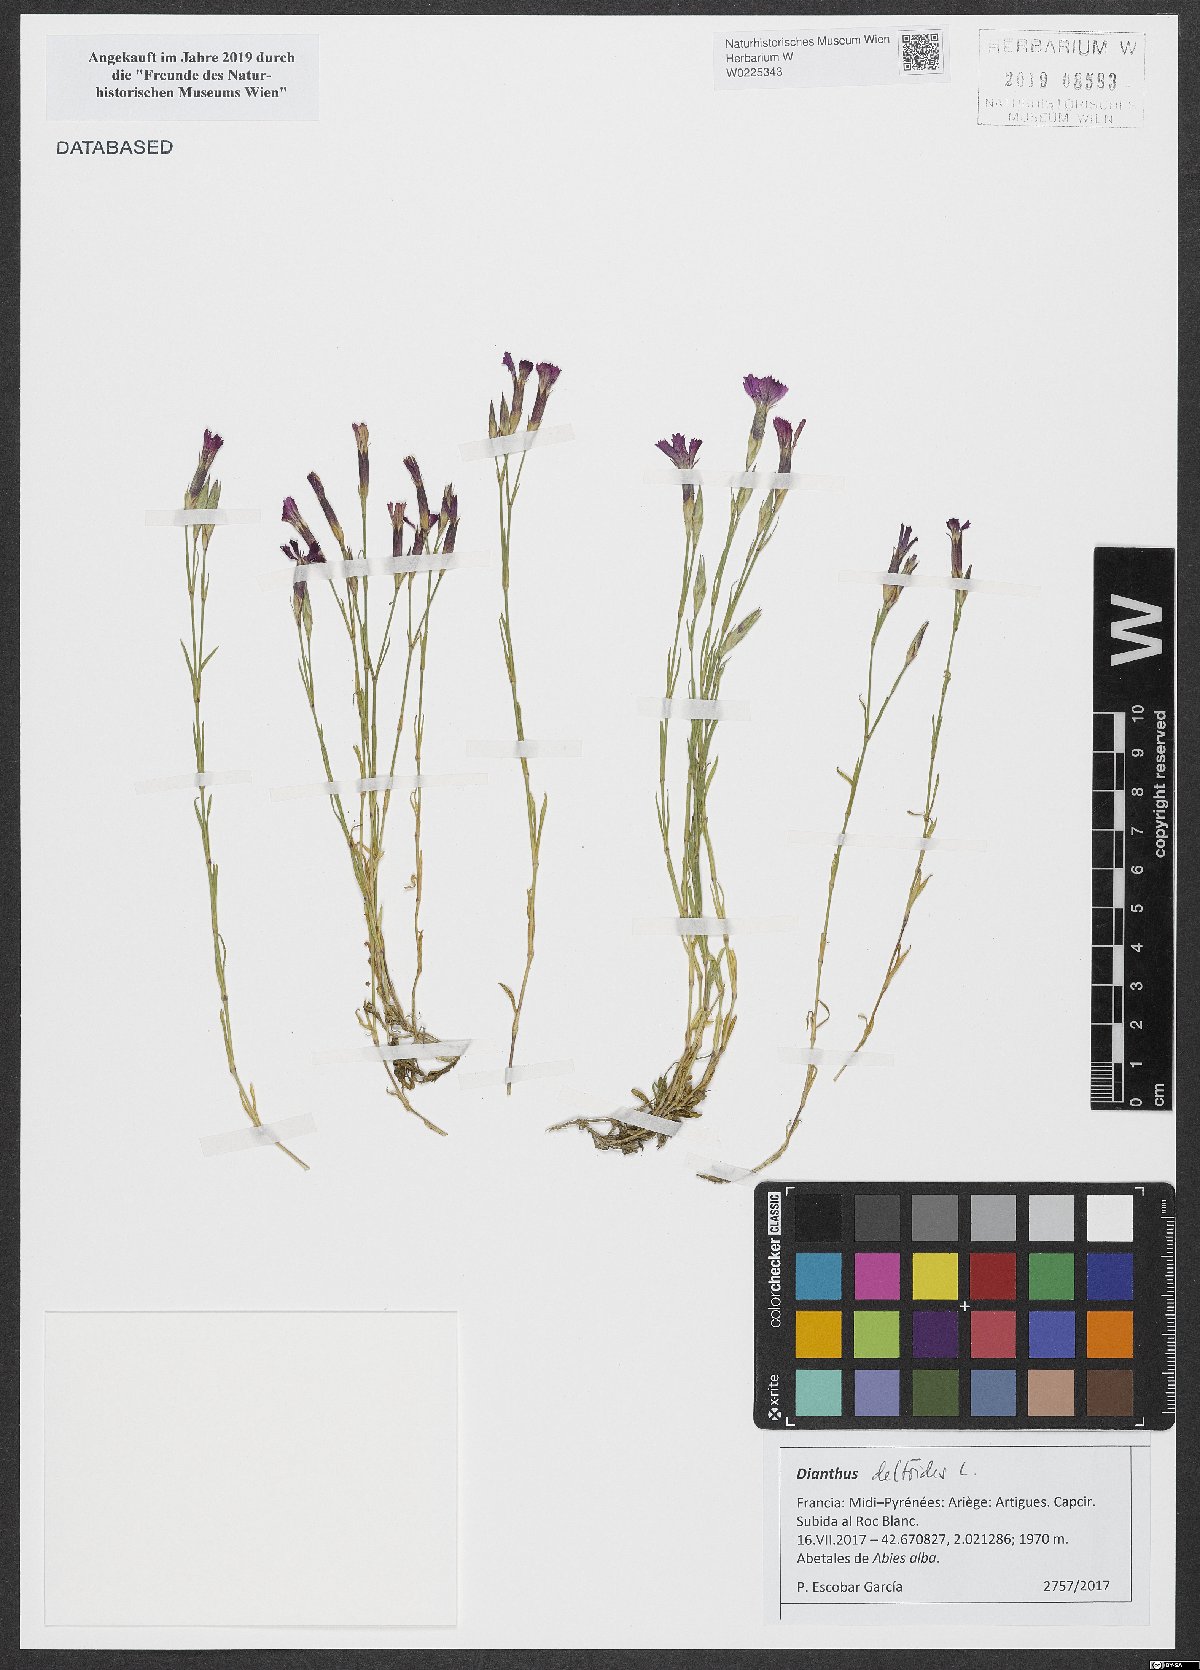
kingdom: Plantae
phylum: Tracheophyta
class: Magnoliopsida
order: Caryophyllales
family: Caryophyllaceae
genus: Dianthus
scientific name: Dianthus deltoides
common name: Maiden pink
